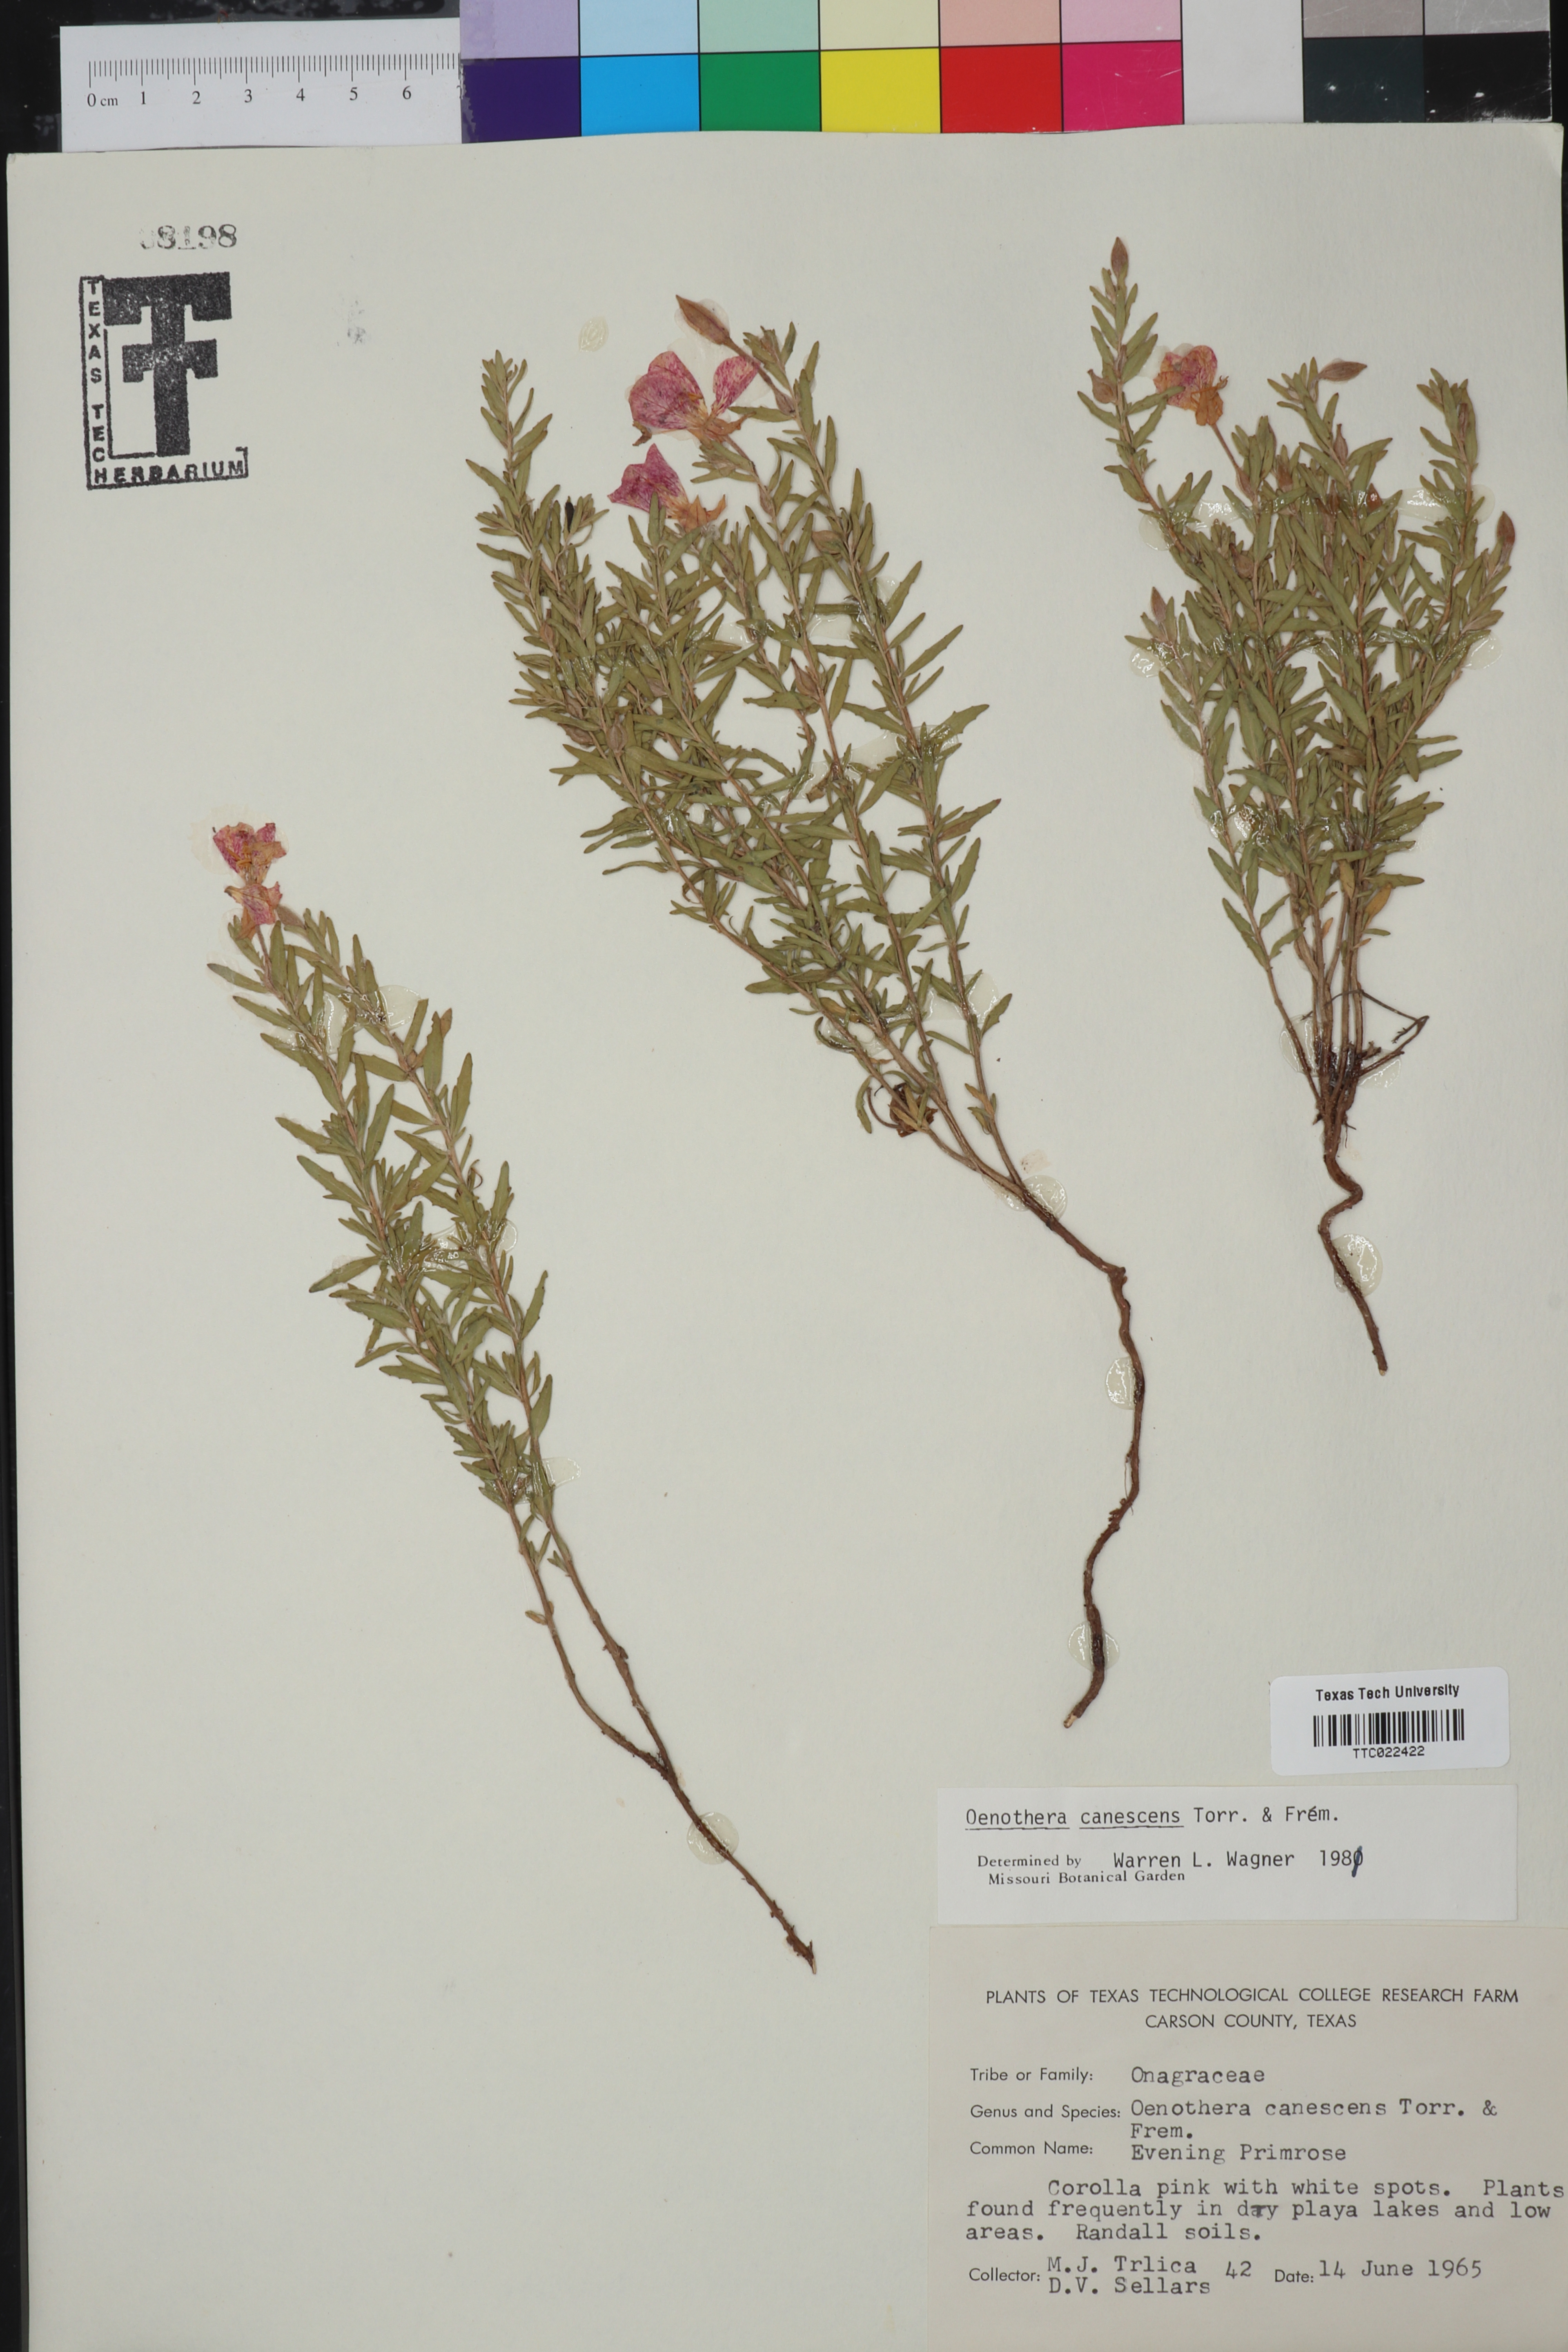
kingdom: Plantae
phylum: Tracheophyta
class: Magnoliopsida
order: Myrtales
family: Onagraceae
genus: Oenothera
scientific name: Oenothera canescens
